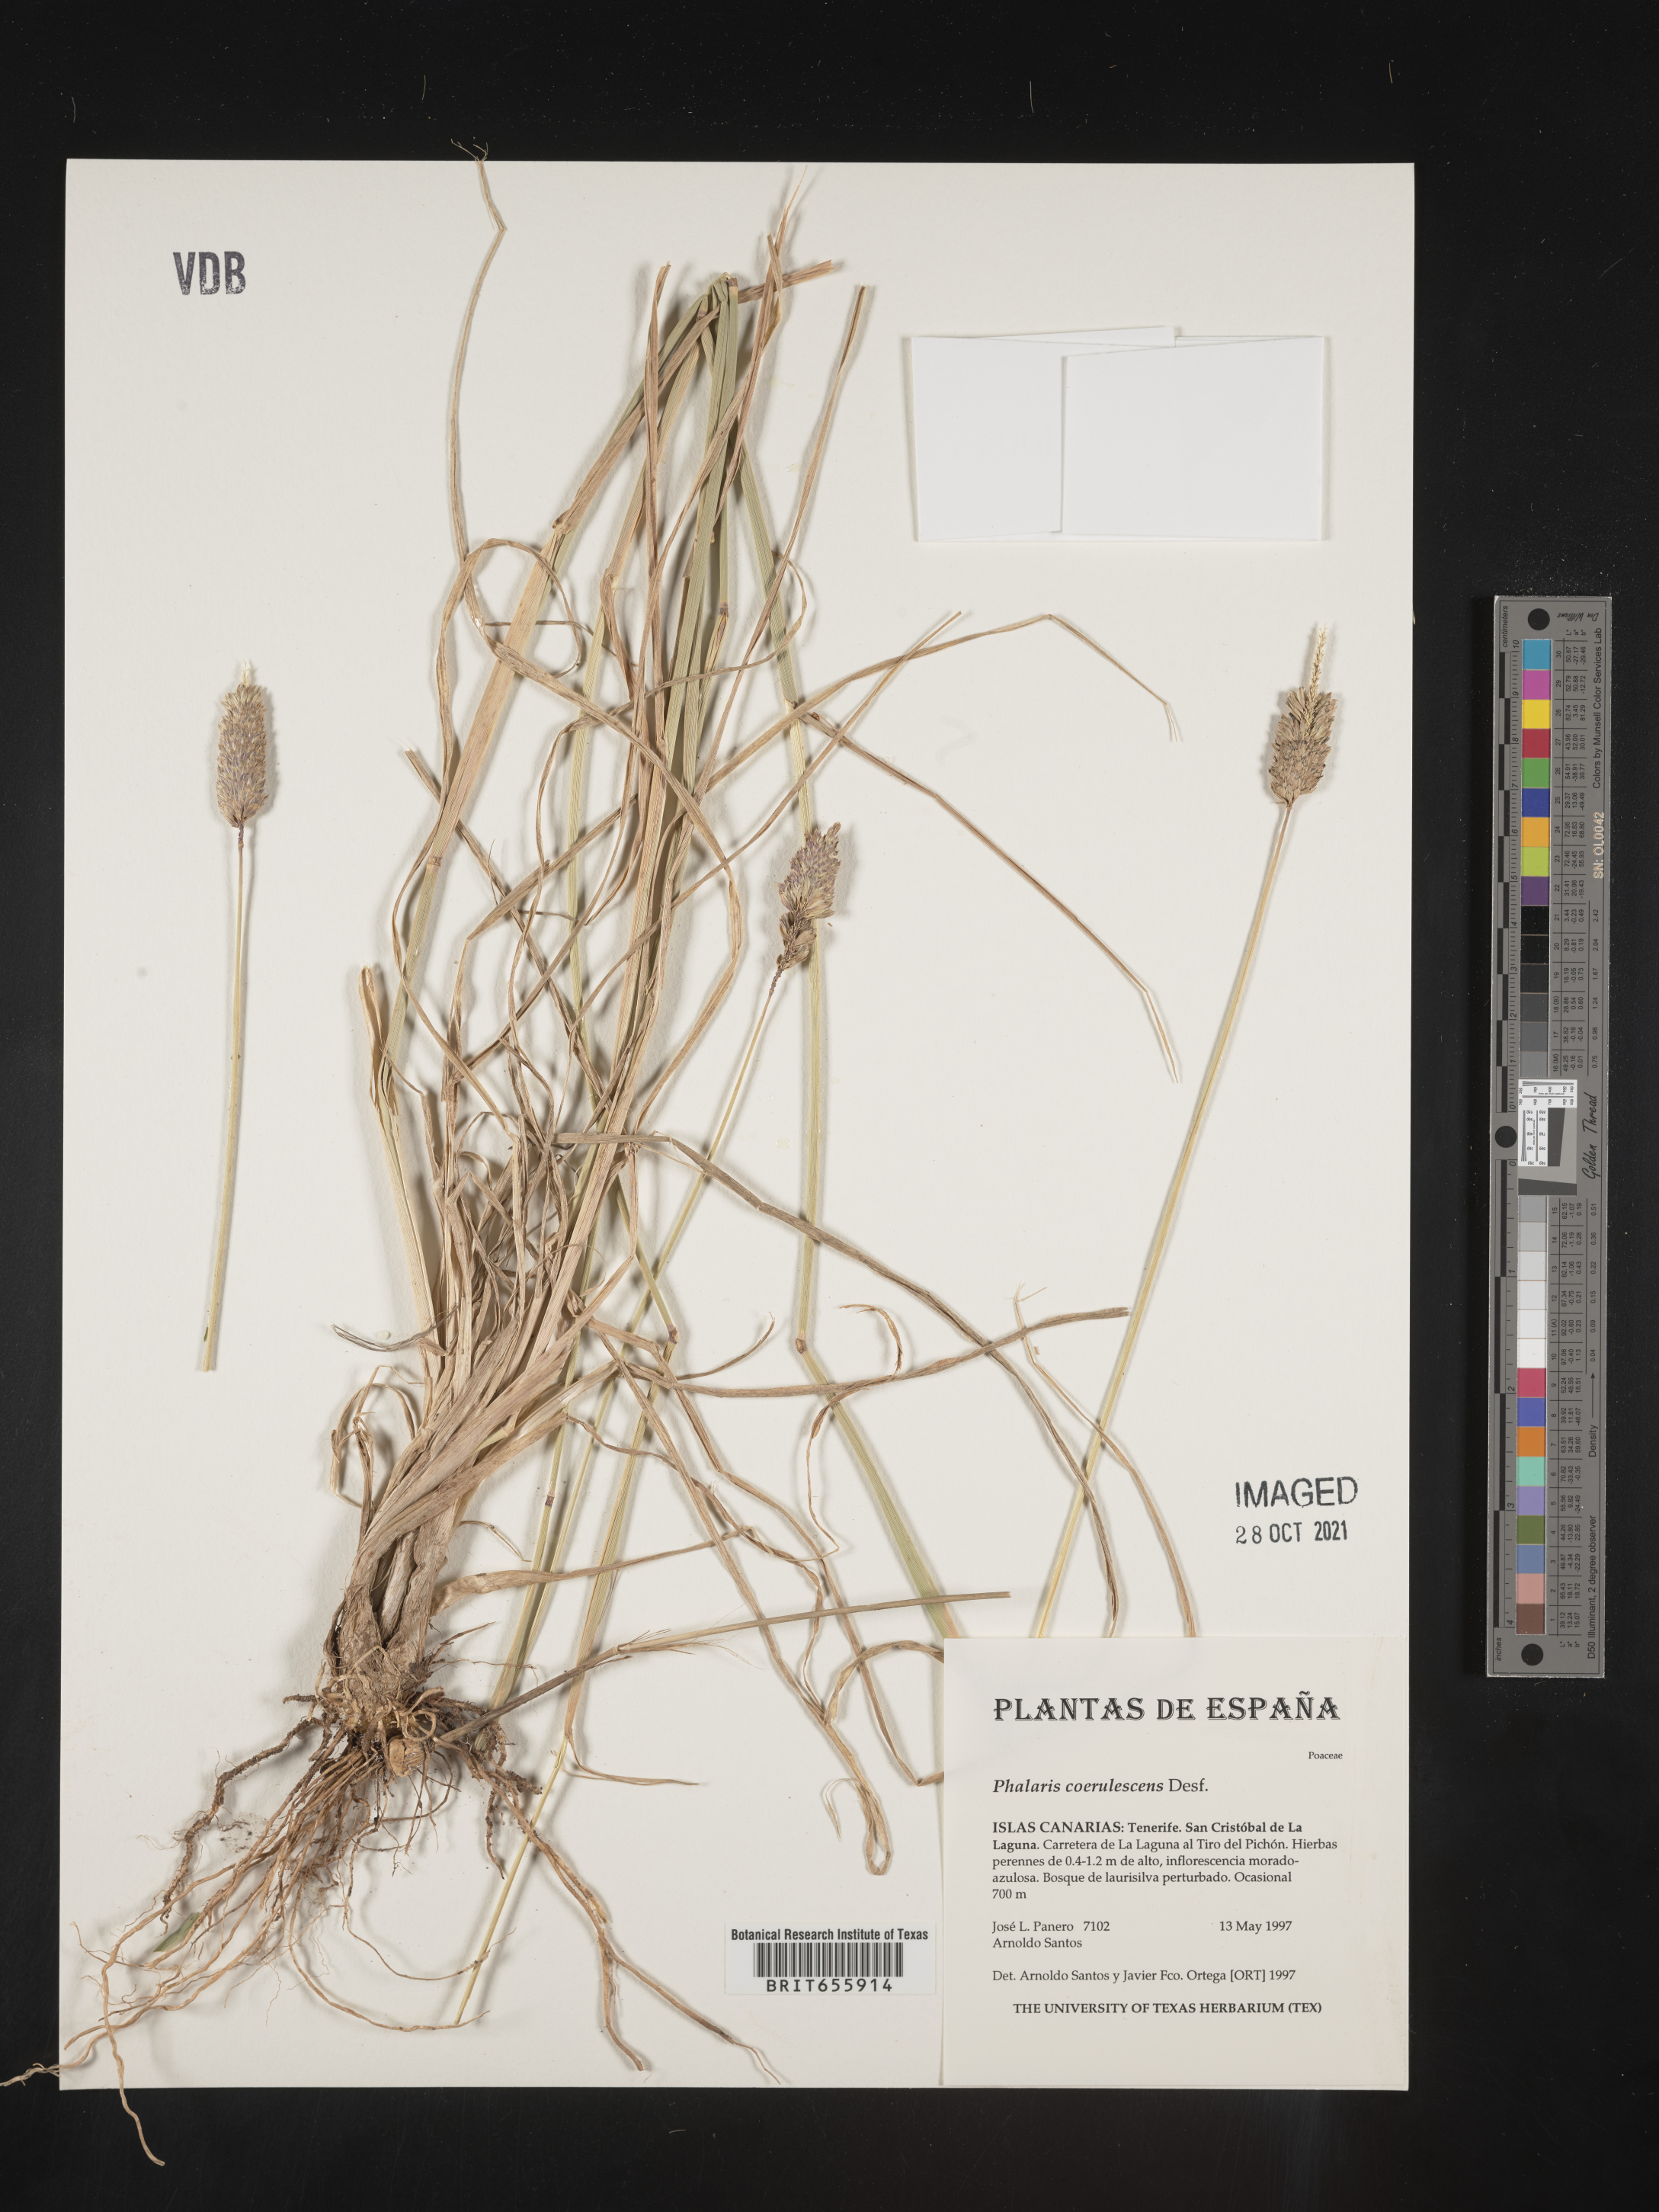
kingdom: Plantae
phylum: Tracheophyta
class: Liliopsida
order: Poales
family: Poaceae
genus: Phalaris
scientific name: Phalaris
